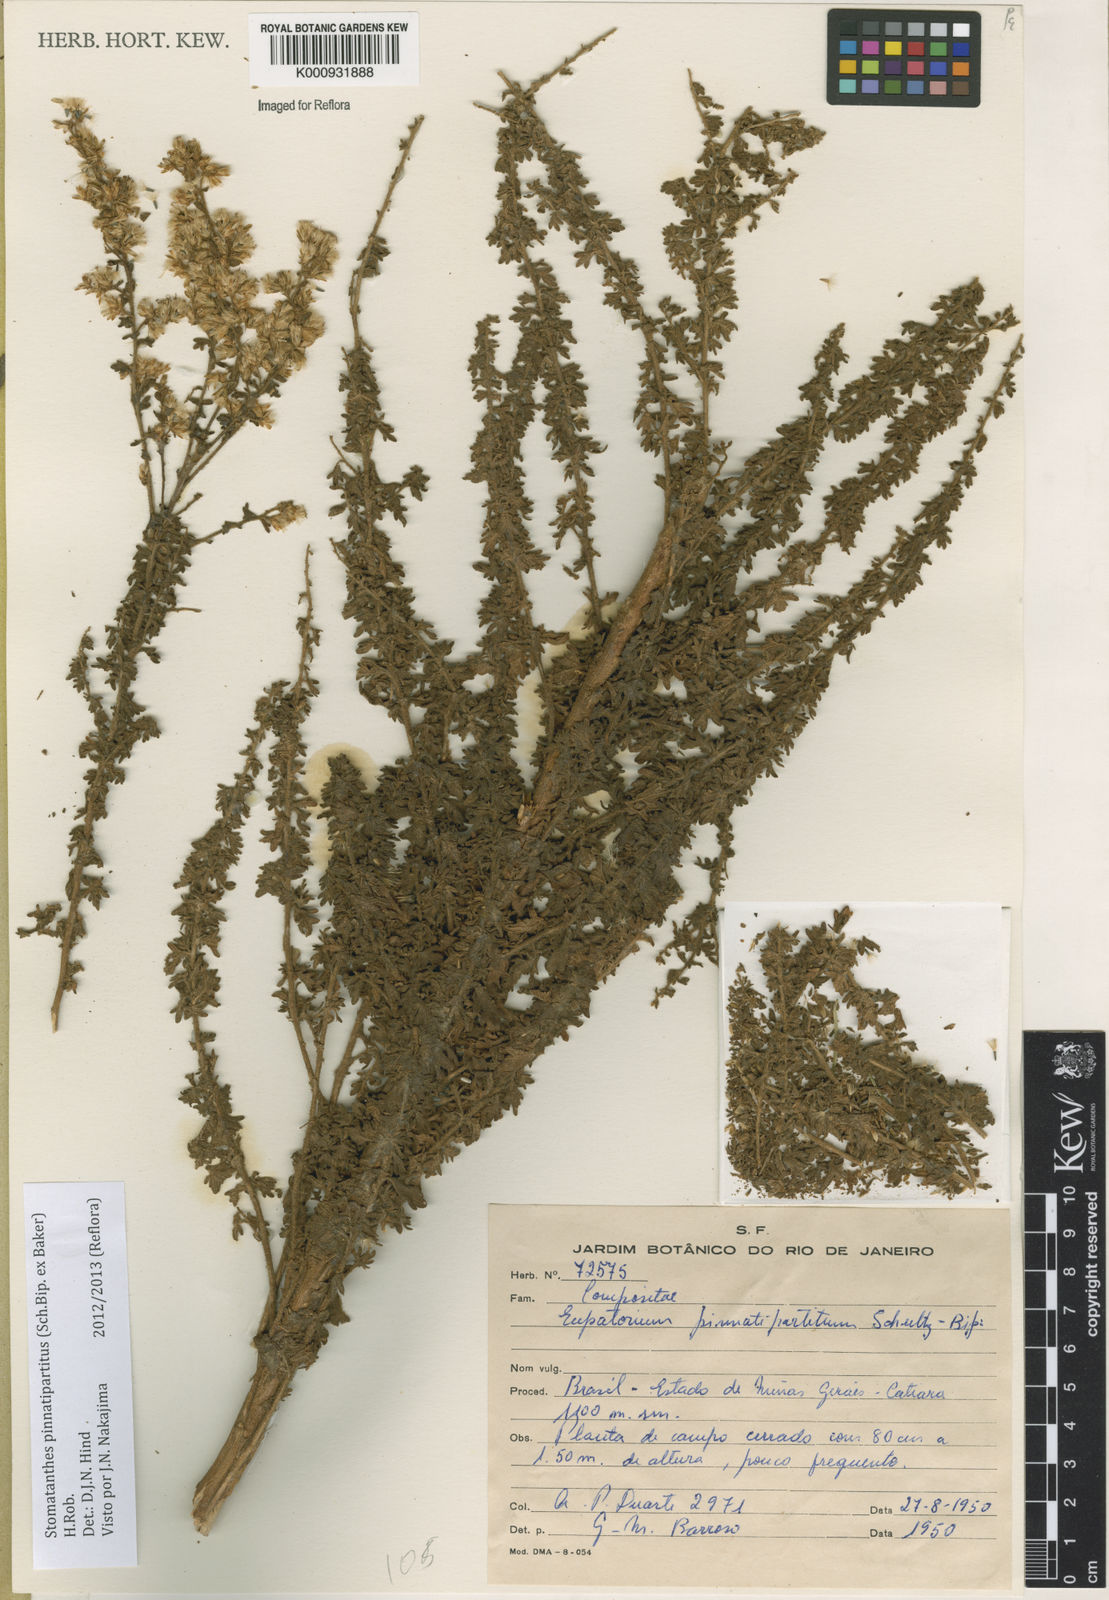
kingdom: Plantae
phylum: Tracheophyta
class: Magnoliopsida
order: Asterales
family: Asteraceae
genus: Stomatanthes
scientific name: Stomatanthes pinnatipartitus
